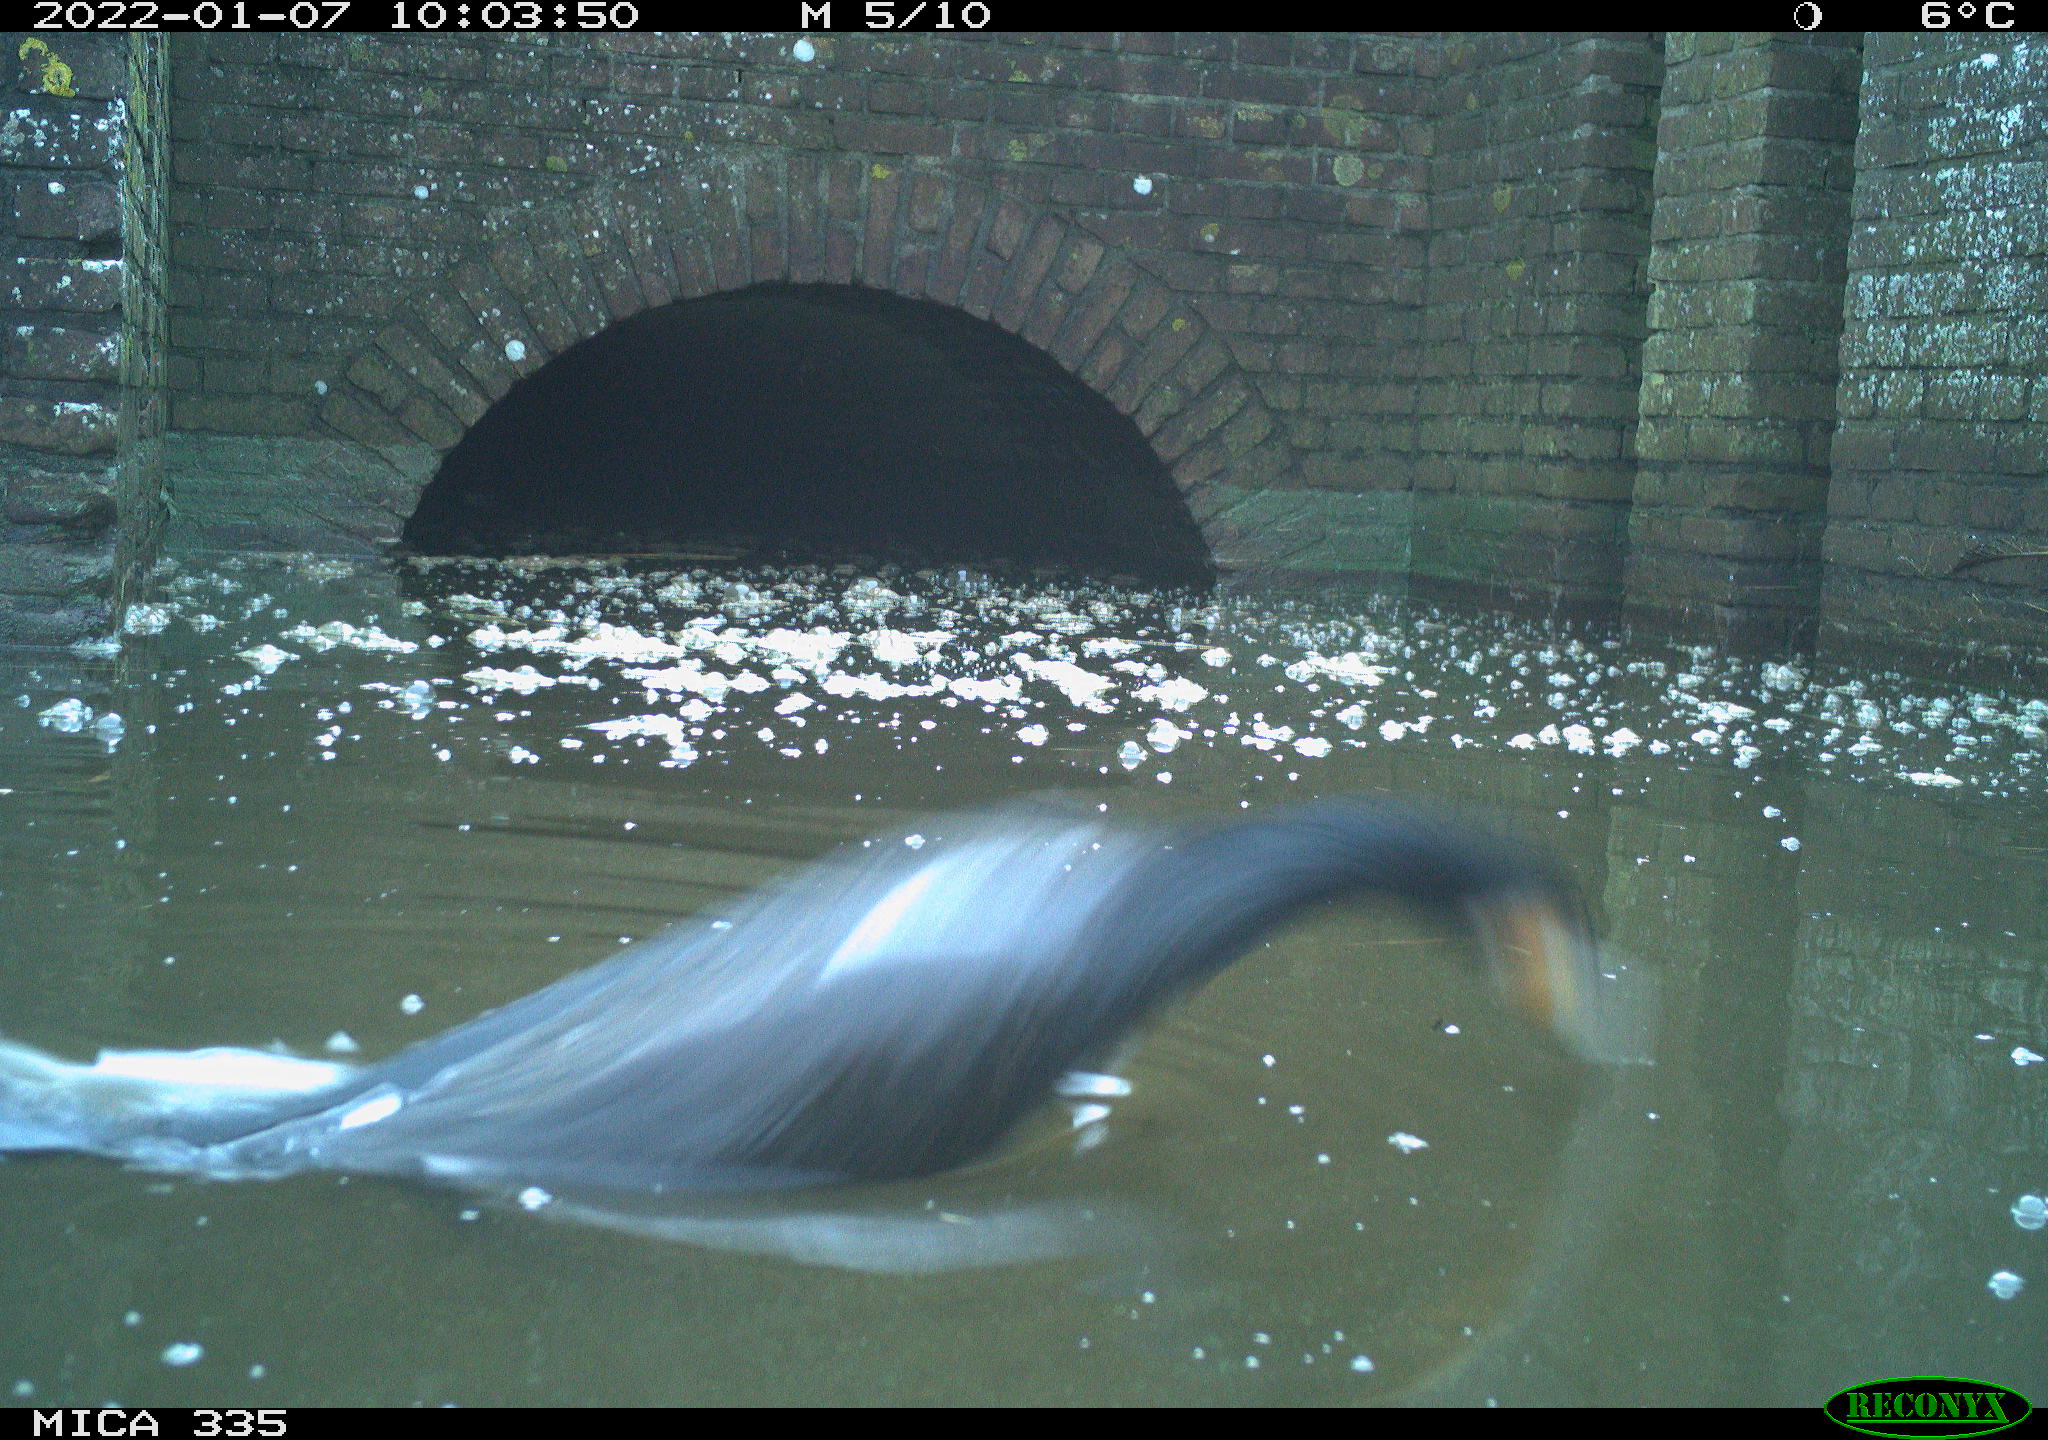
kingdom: Animalia
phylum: Chordata
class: Aves
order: Suliformes
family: Phalacrocoracidae
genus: Phalacrocorax
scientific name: Phalacrocorax carbo
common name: Great cormorant
